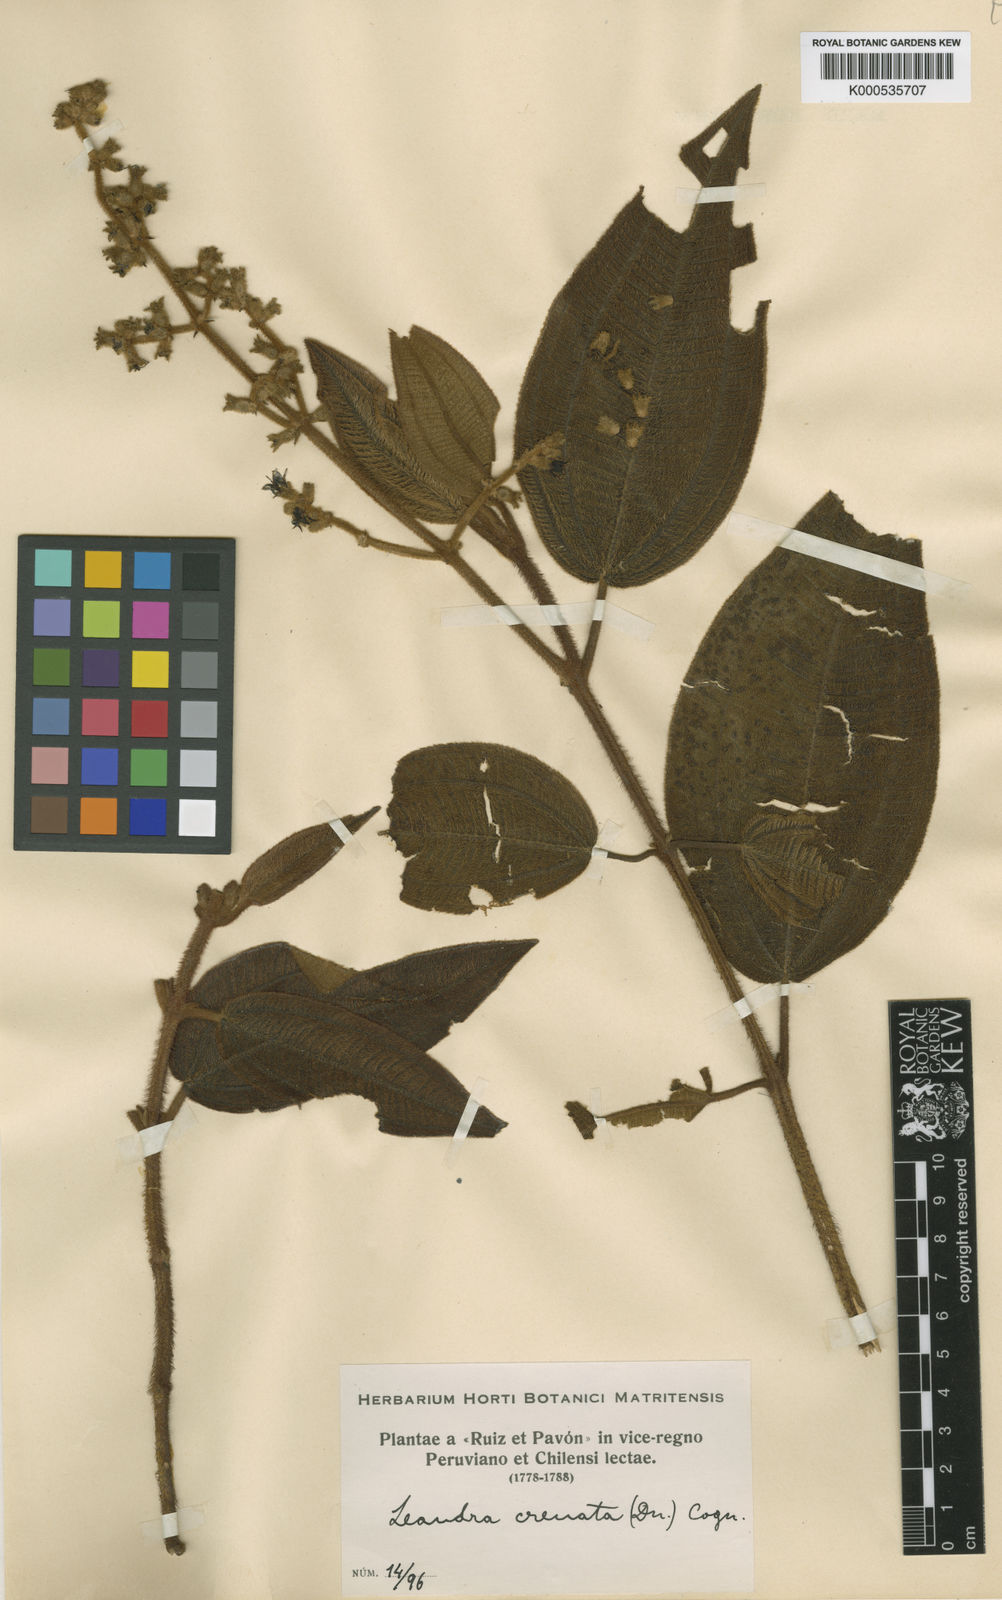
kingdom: Plantae
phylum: Tracheophyta
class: Magnoliopsida
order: Myrtales
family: Melastomataceae
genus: Miconia
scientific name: Miconia leacrenata
